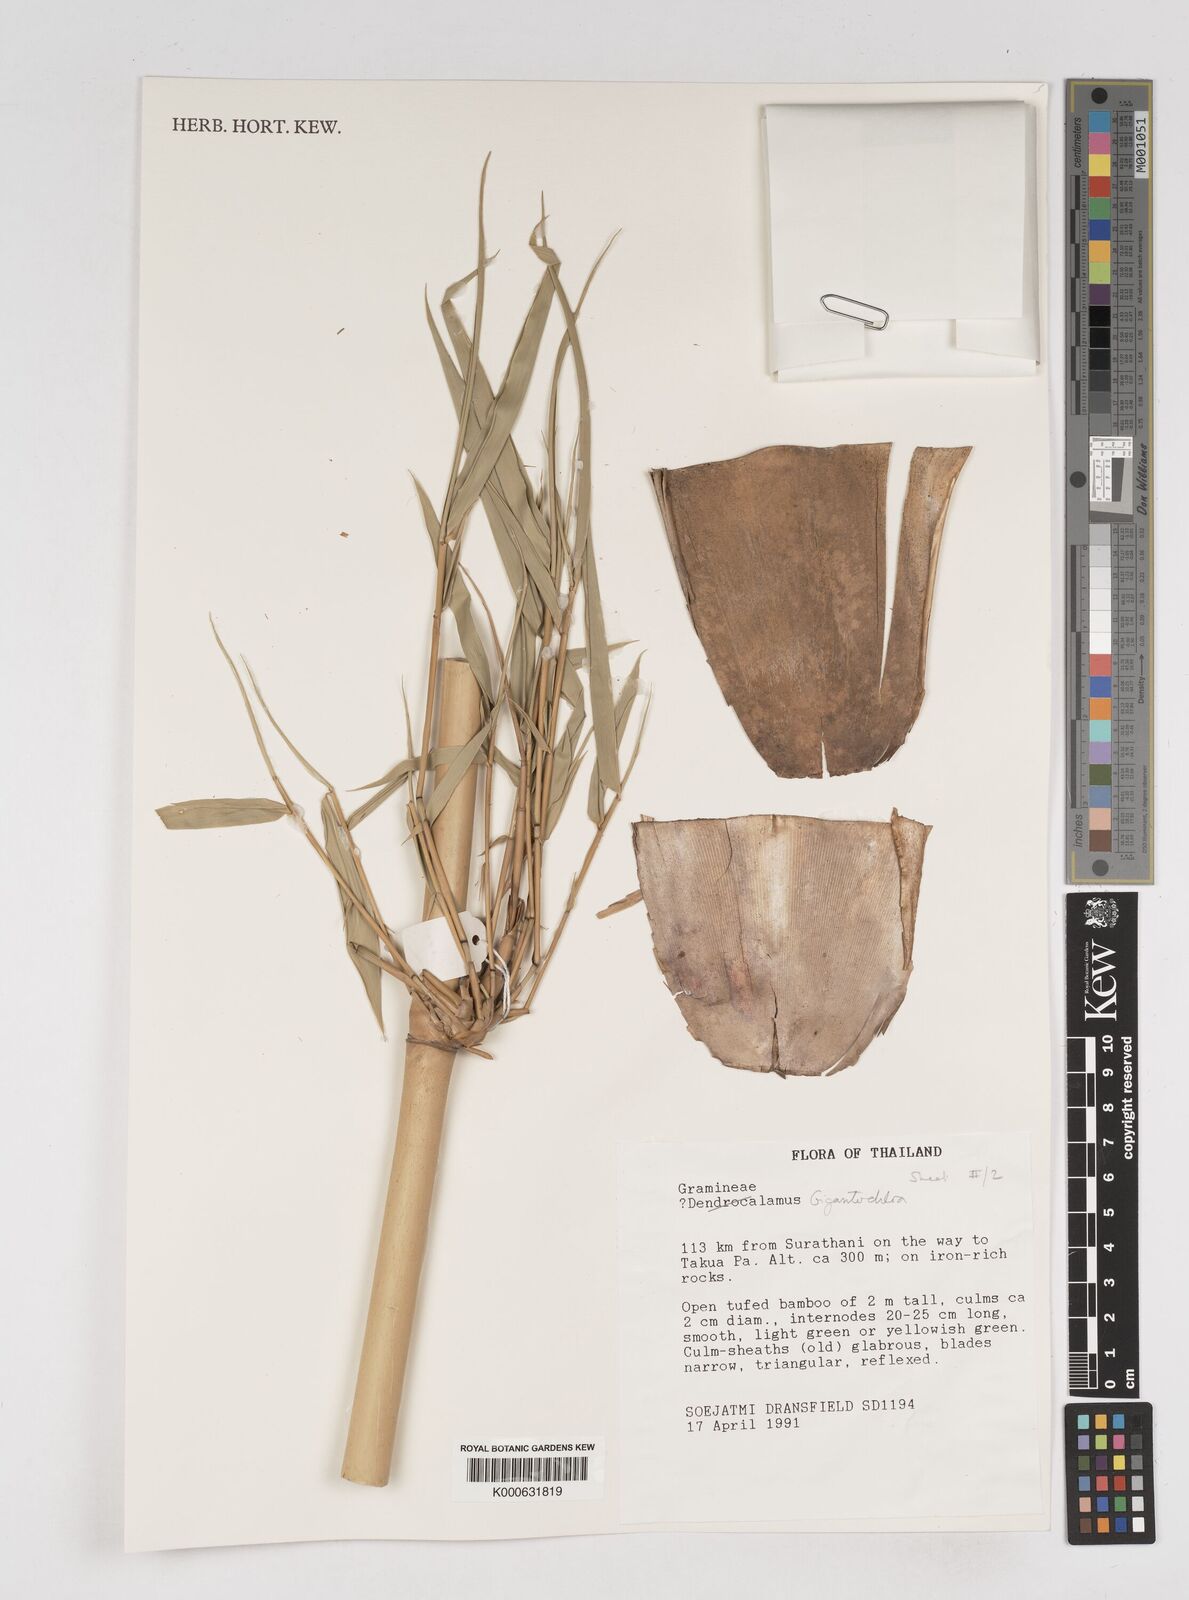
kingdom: Plantae
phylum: Tracheophyta
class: Liliopsida
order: Poales
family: Poaceae
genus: Gigantochloa
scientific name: Gigantochloa
